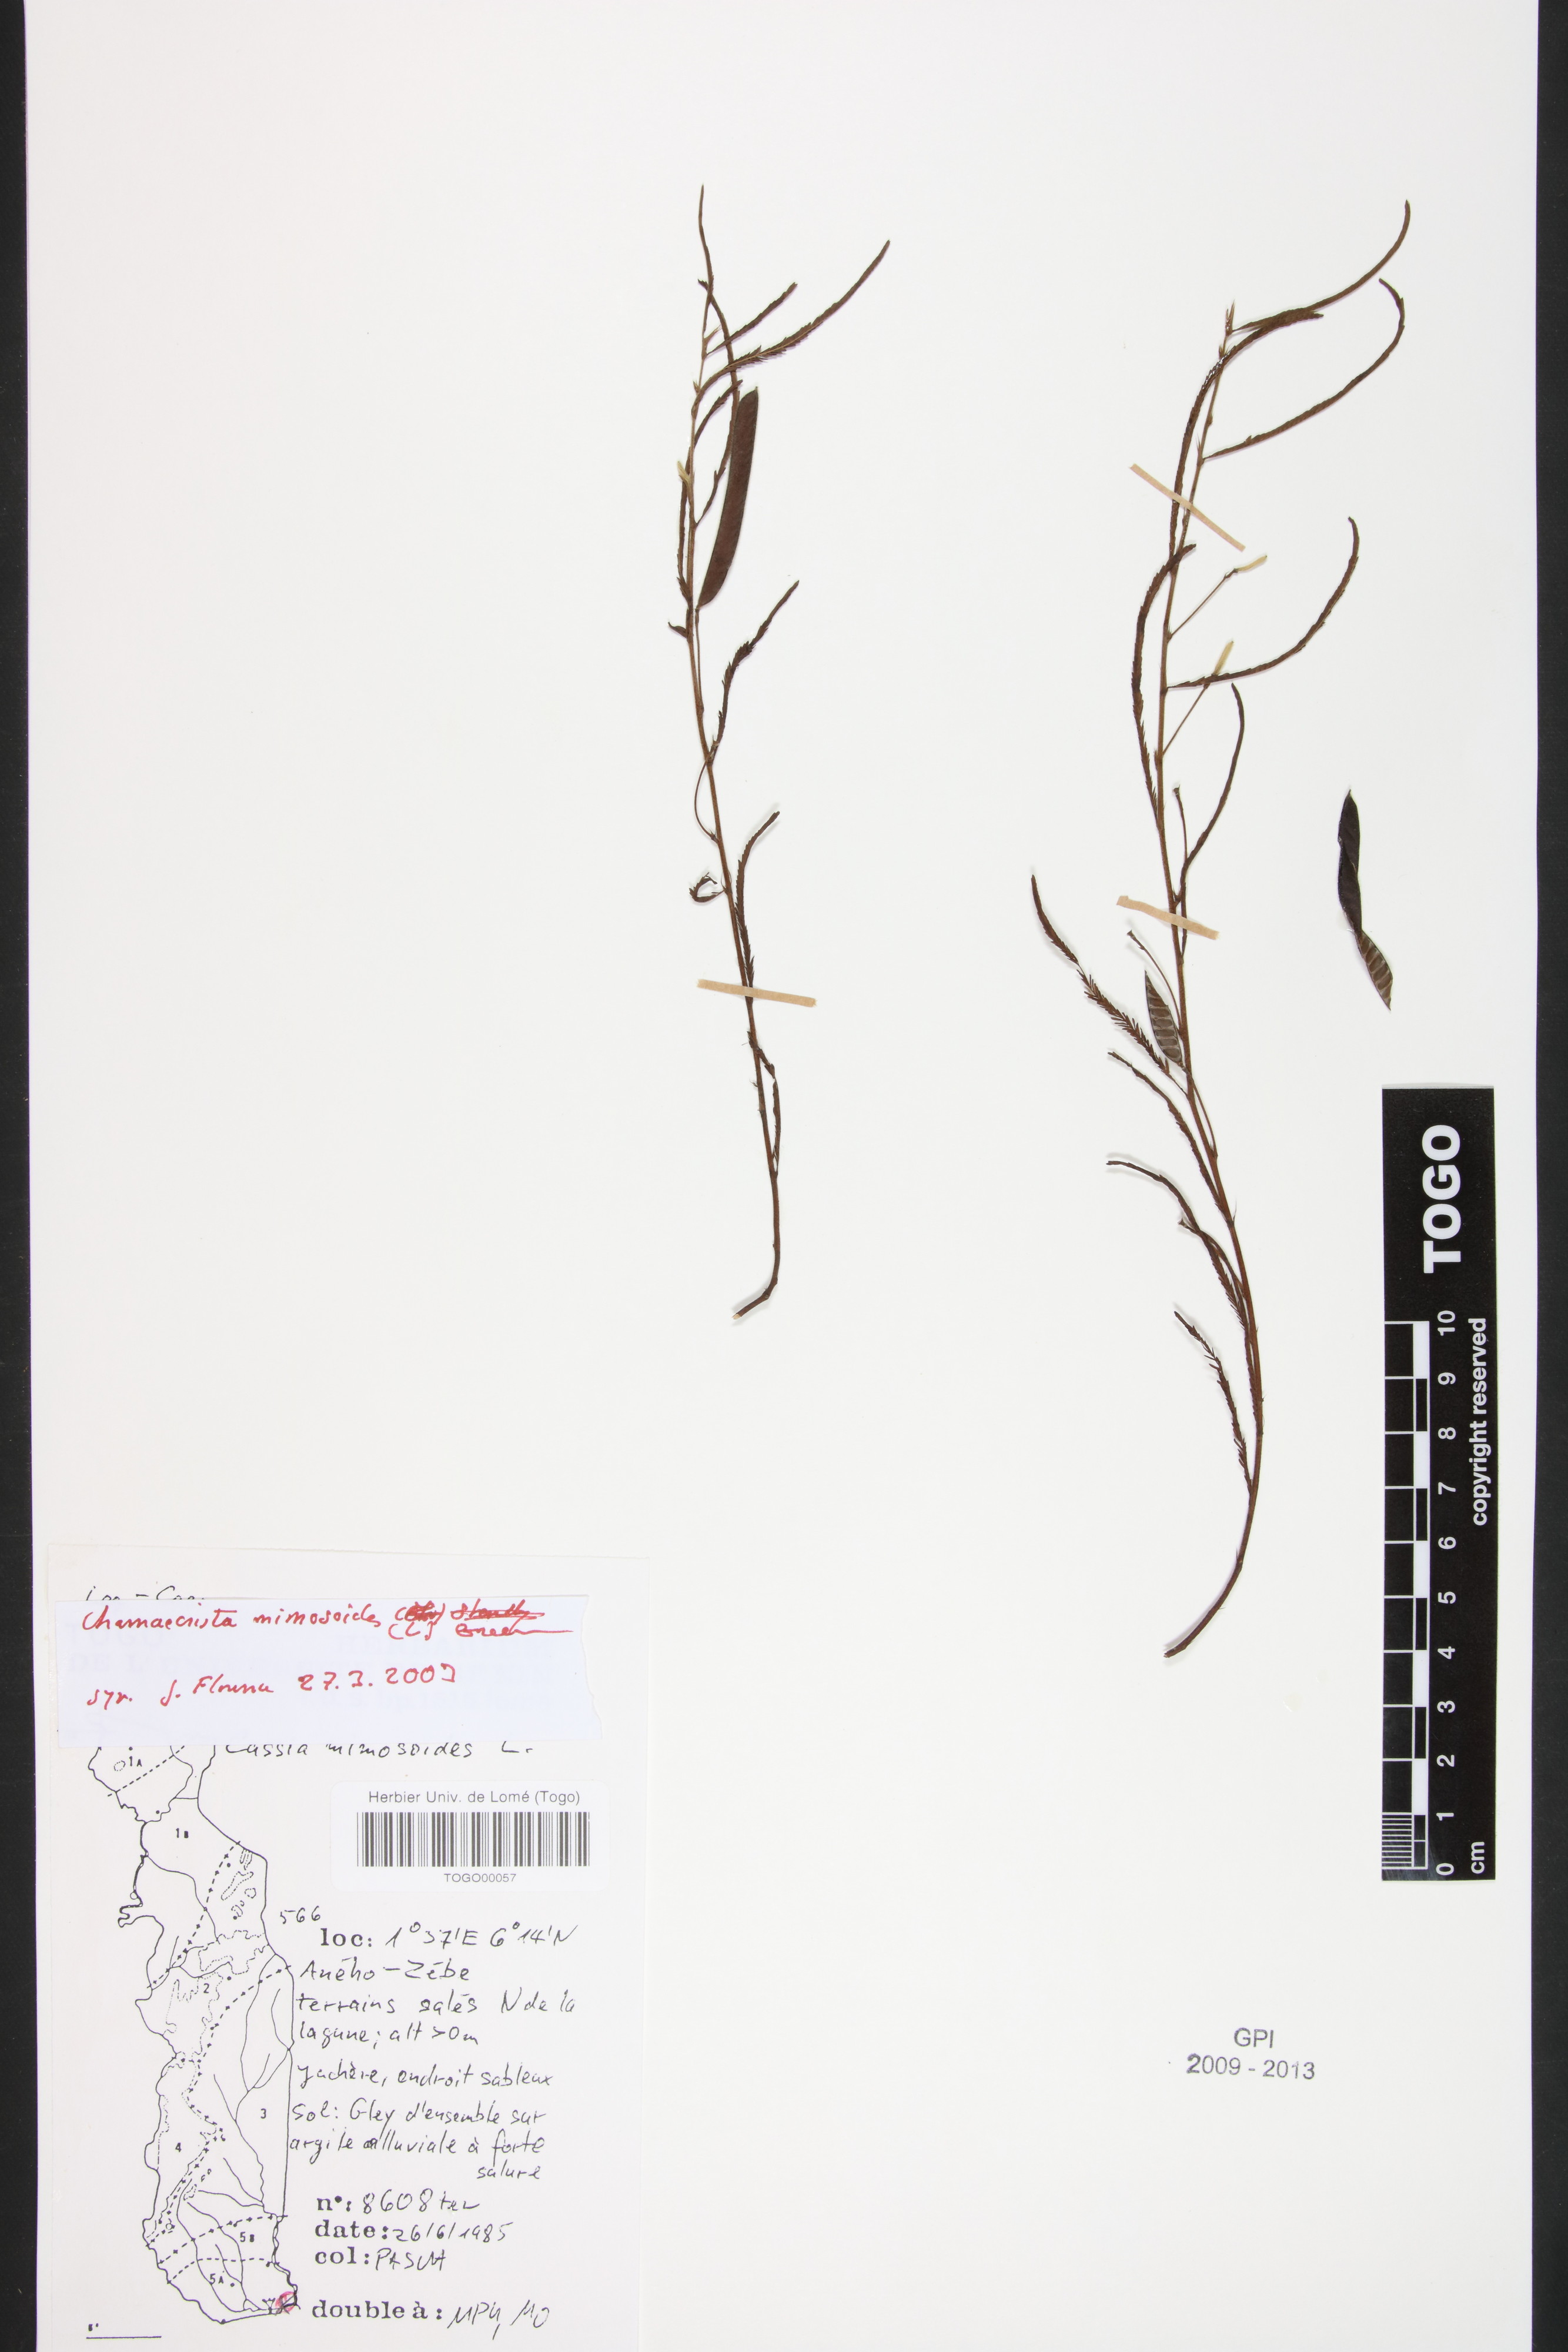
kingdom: Plantae
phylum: Tracheophyta
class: Magnoliopsida
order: Fabales
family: Fabaceae
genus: Chamaecrista
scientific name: Chamaecrista mimosoides
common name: Fish-bone cassia
